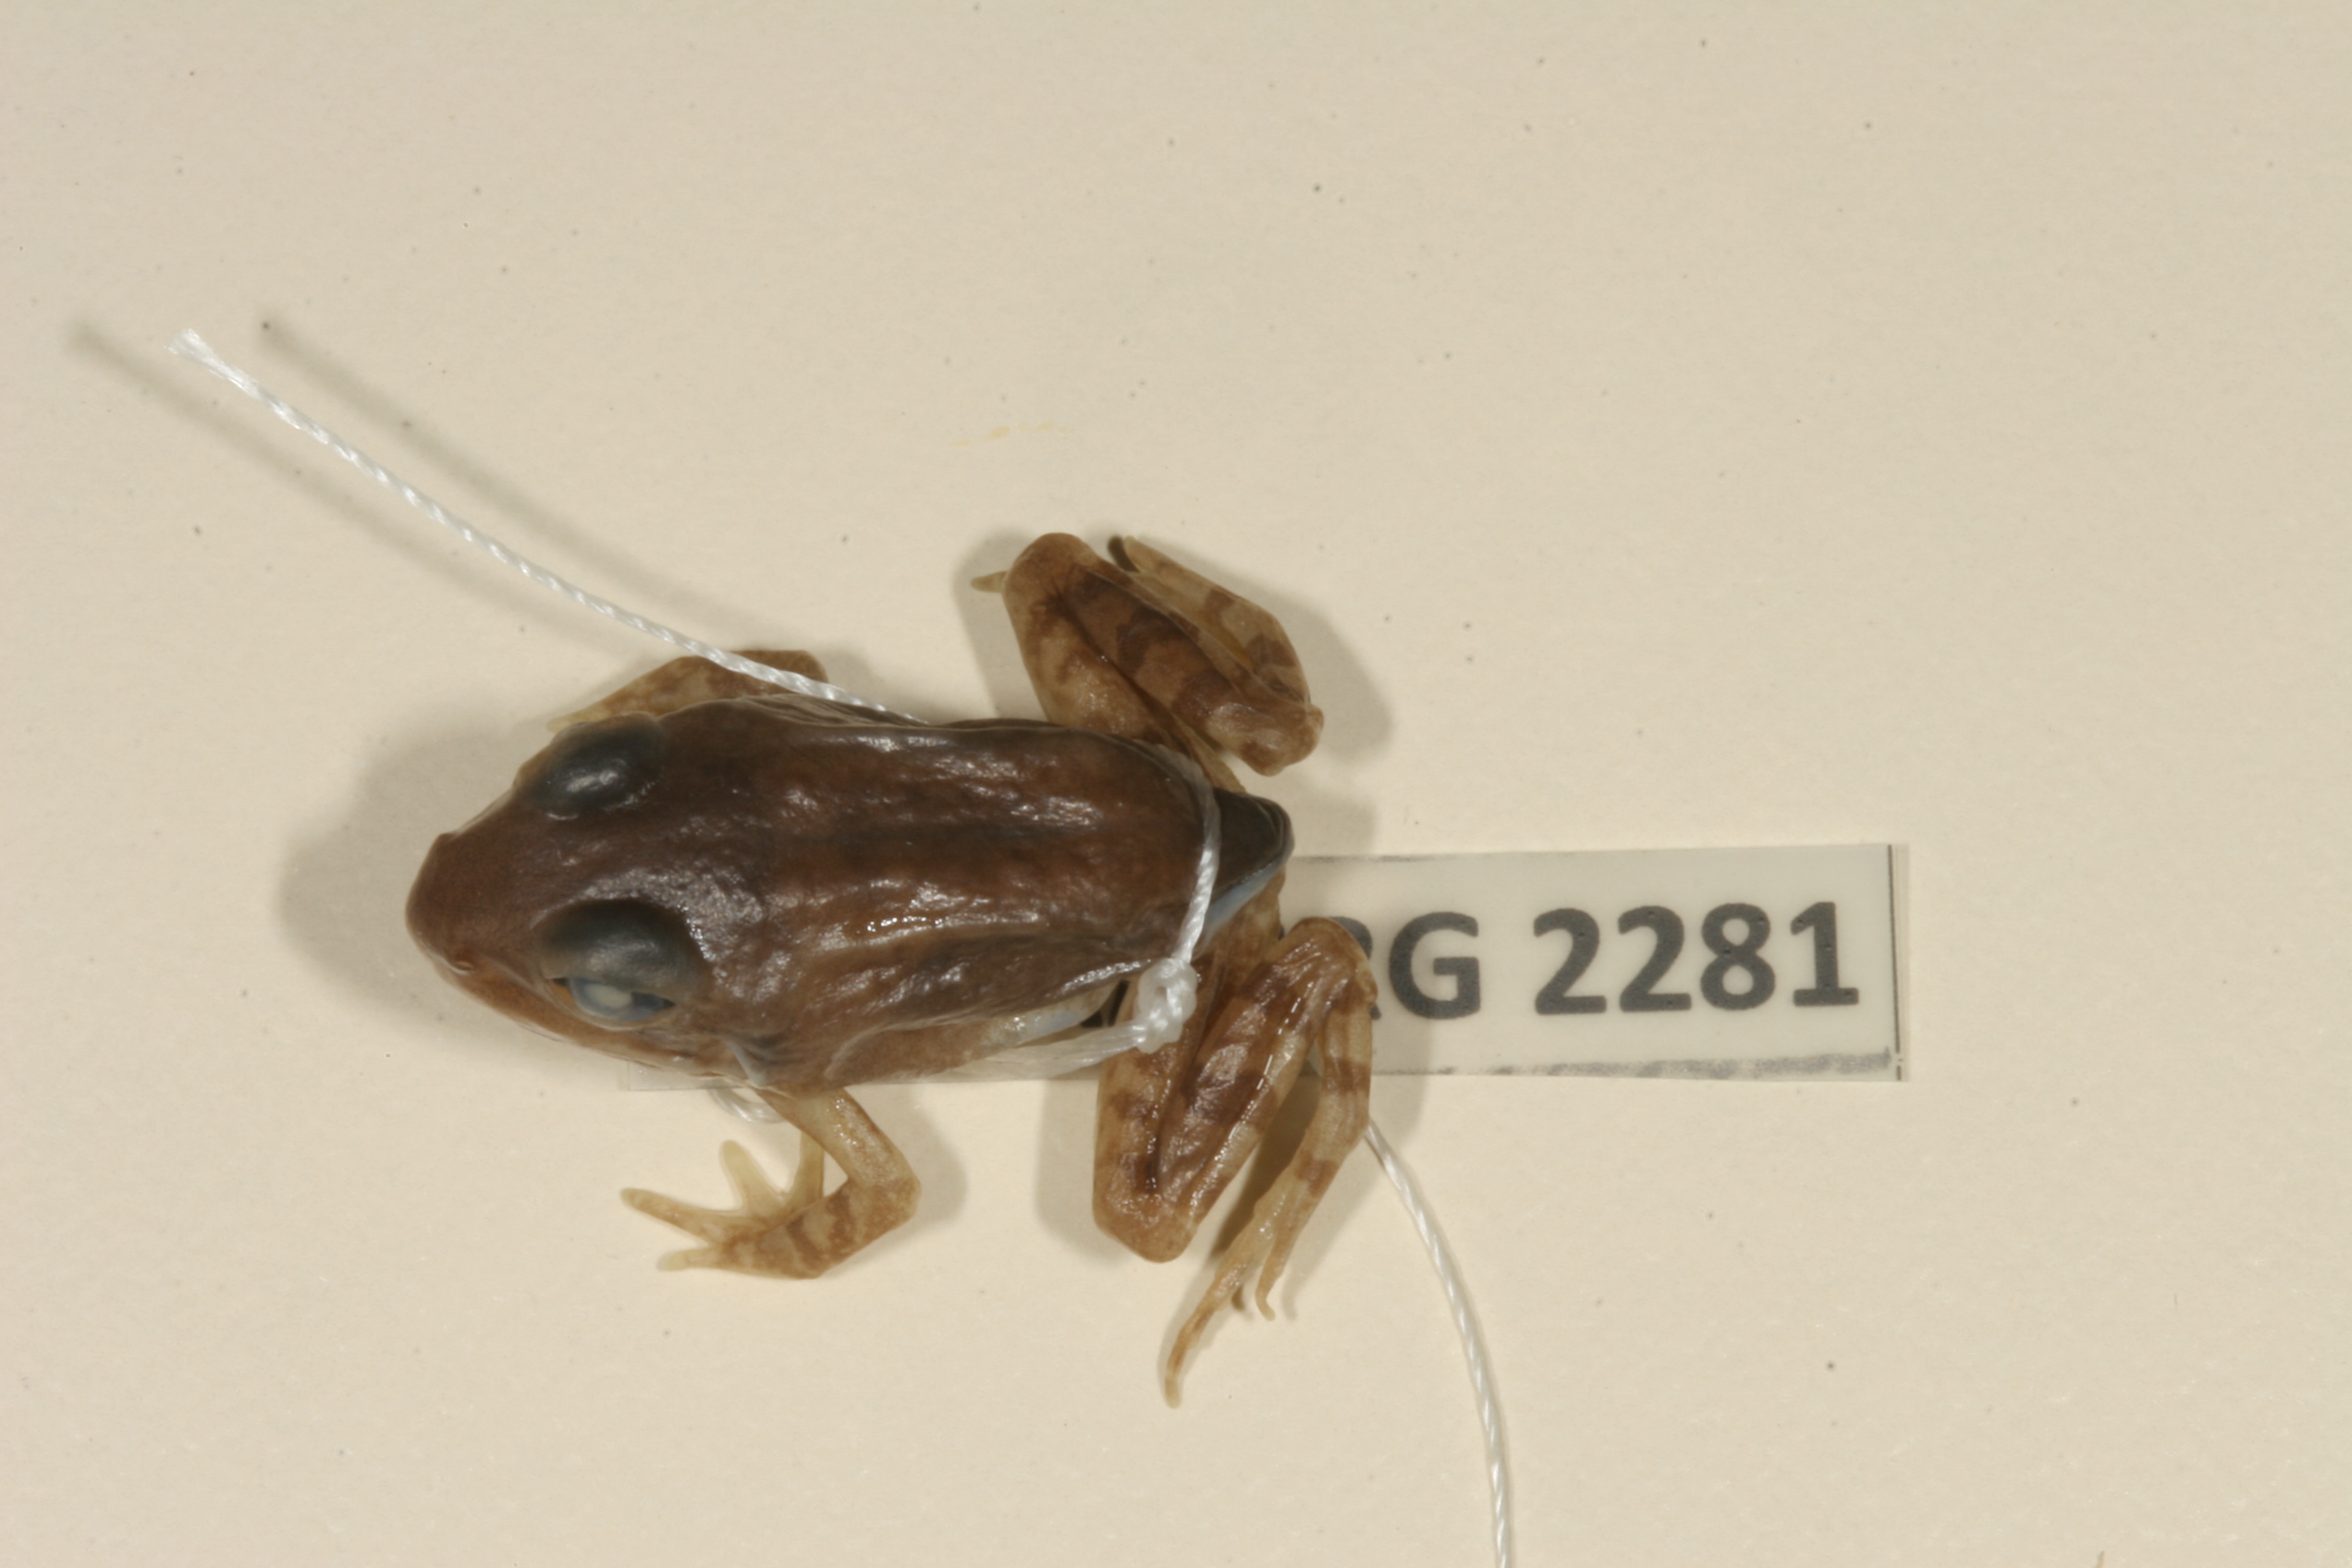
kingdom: Animalia
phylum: Chordata
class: Amphibia
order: Anura
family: Ptychadenidae
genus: Hildebrandtia
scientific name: Hildebrandtia ornata
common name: Ornate frog
